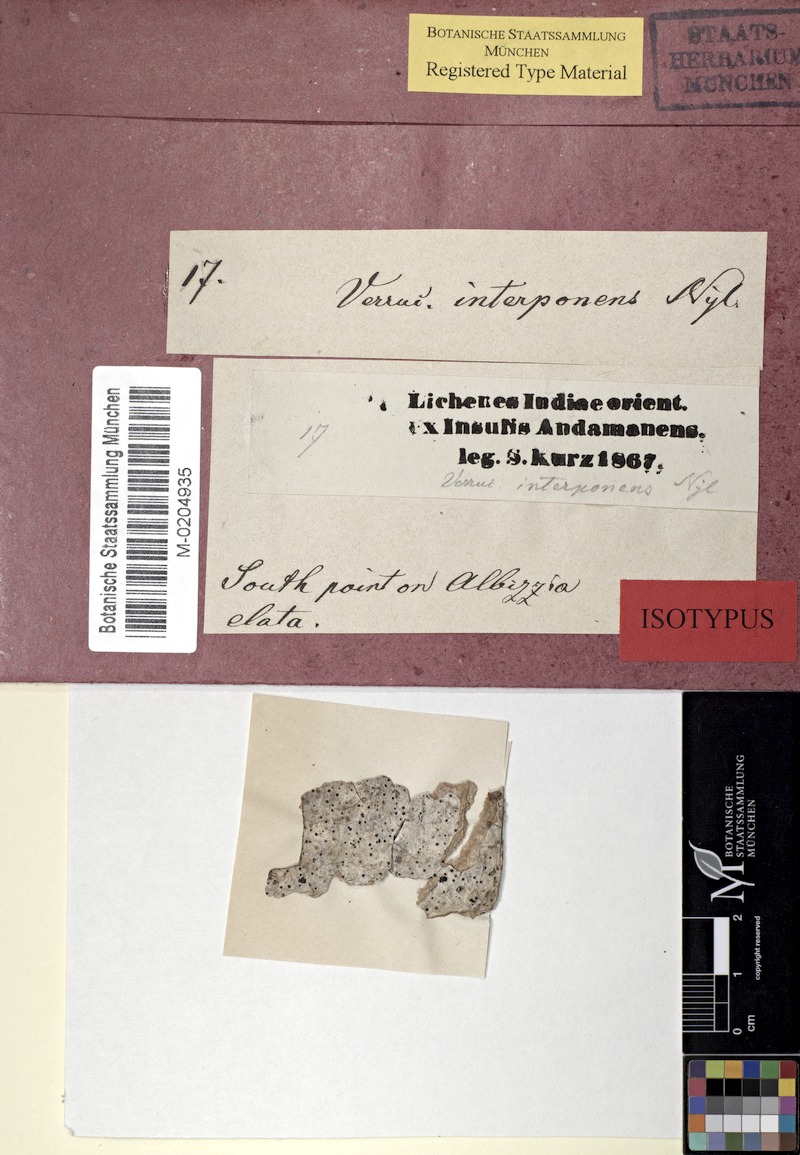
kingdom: Fungi
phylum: Ascomycota
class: Eurotiomycetes
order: Pyrenulales
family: Pyrenulaceae
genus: Anthracothecium
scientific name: Anthracothecium
